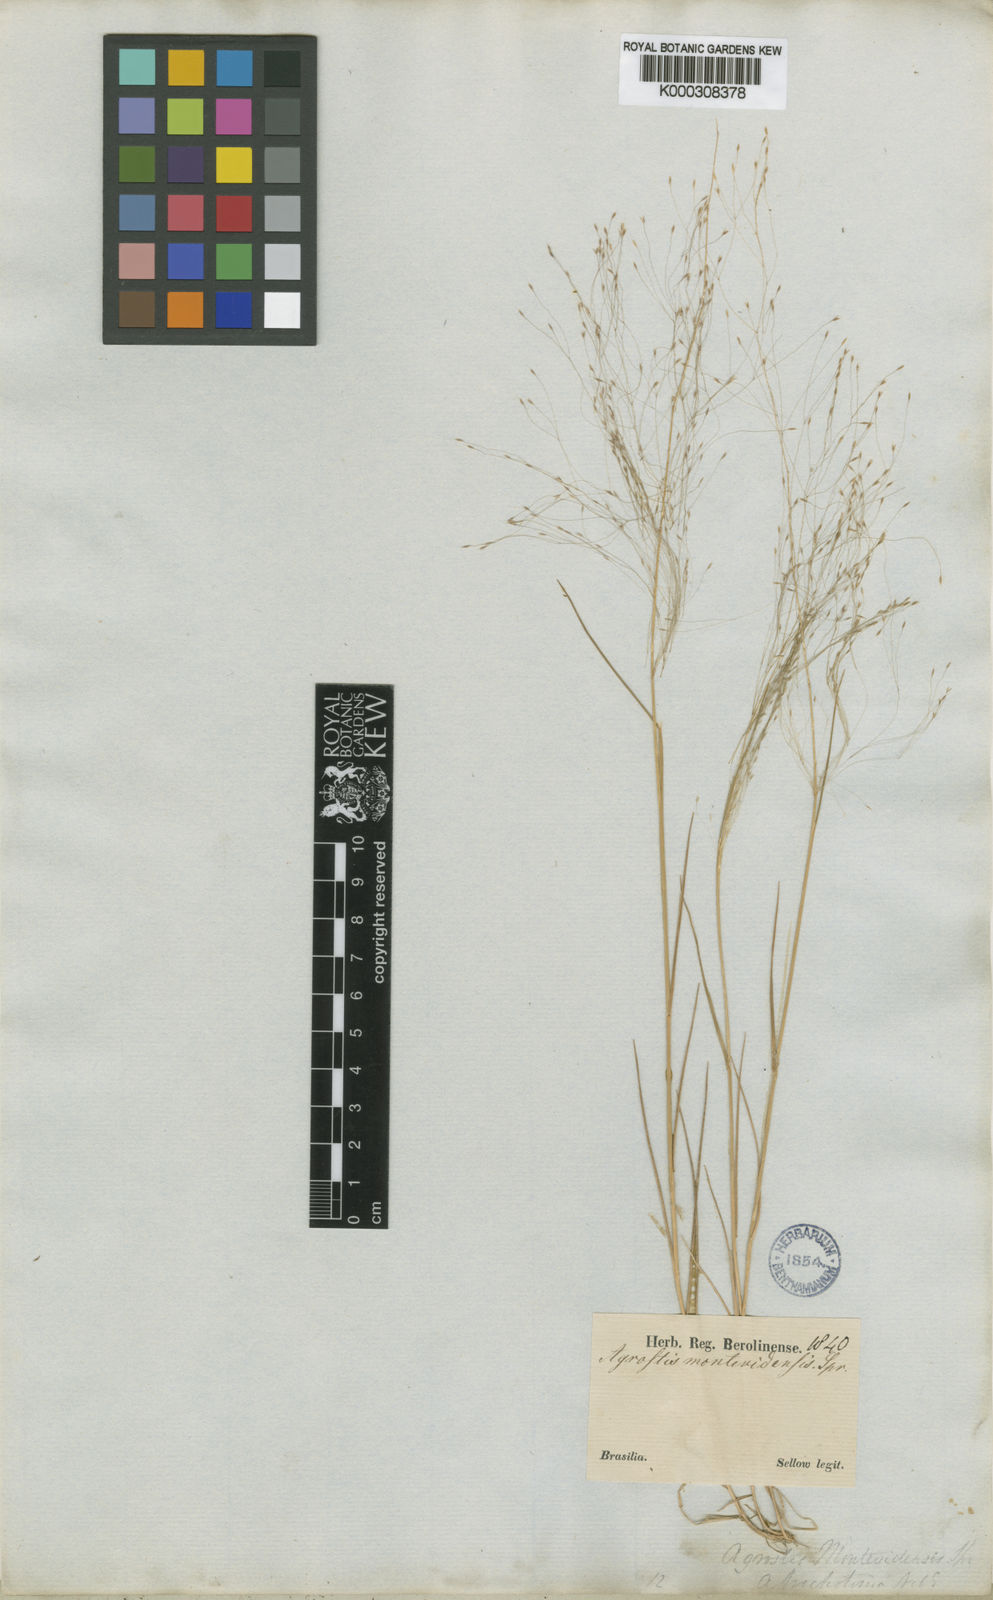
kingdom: Plantae
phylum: Tracheophyta
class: Liliopsida
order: Poales
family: Poaceae
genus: Agrostis
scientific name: Agrostis montevidensis
